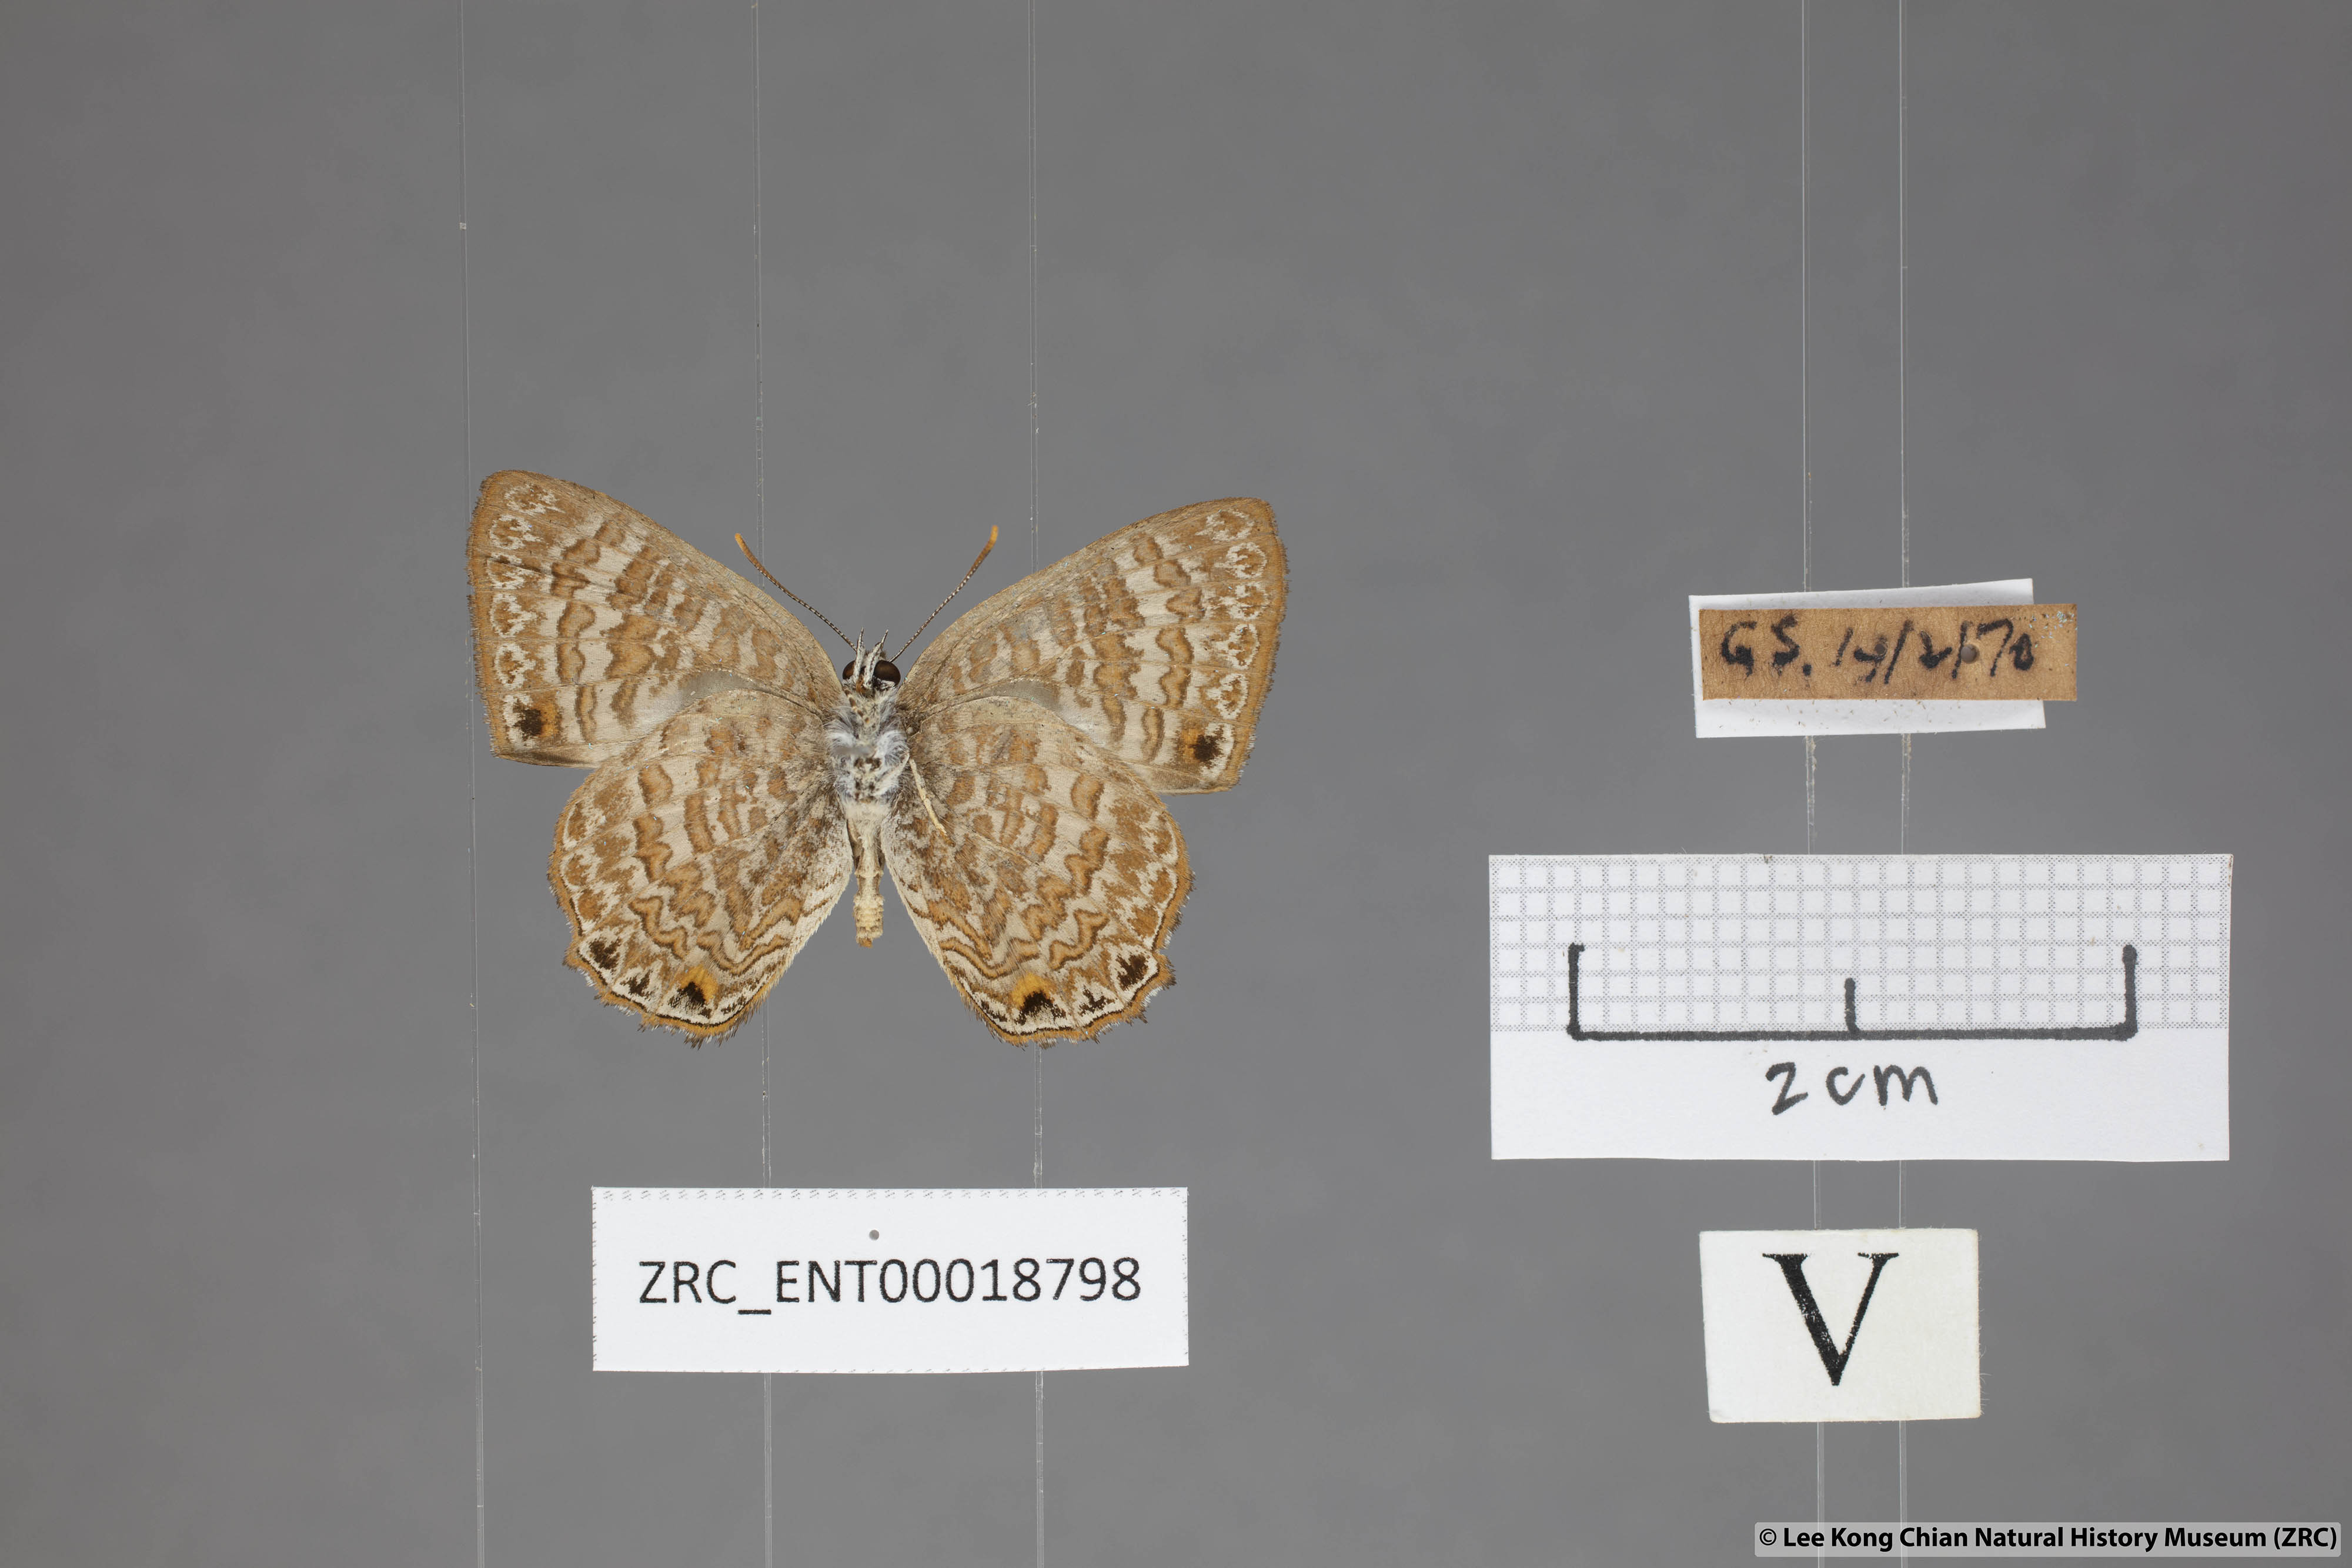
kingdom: Animalia
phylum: Arthropoda
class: Insecta
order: Lepidoptera
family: Lycaenidae
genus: Poritia
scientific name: Poritia pleurata
